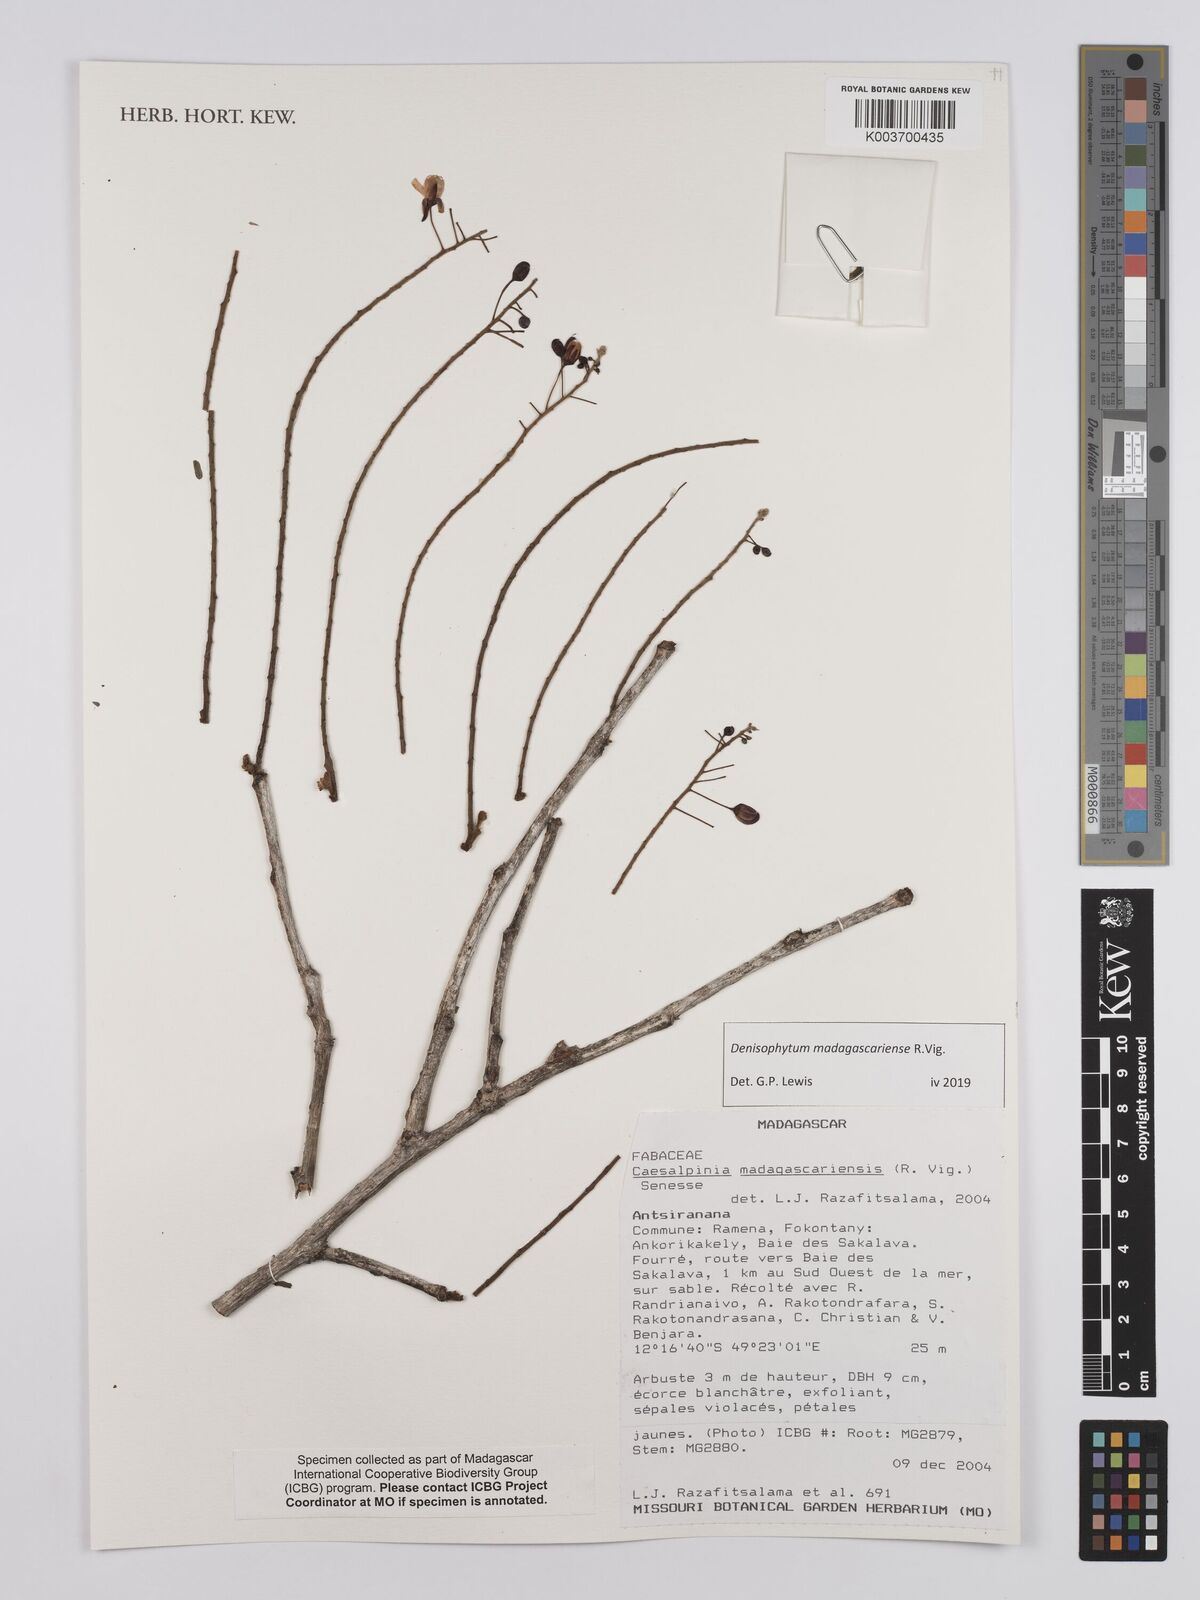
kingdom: Plantae
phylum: Tracheophyta
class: Magnoliopsida
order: Fabales
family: Fabaceae
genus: Denisophytum
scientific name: Denisophytum madagascariense
